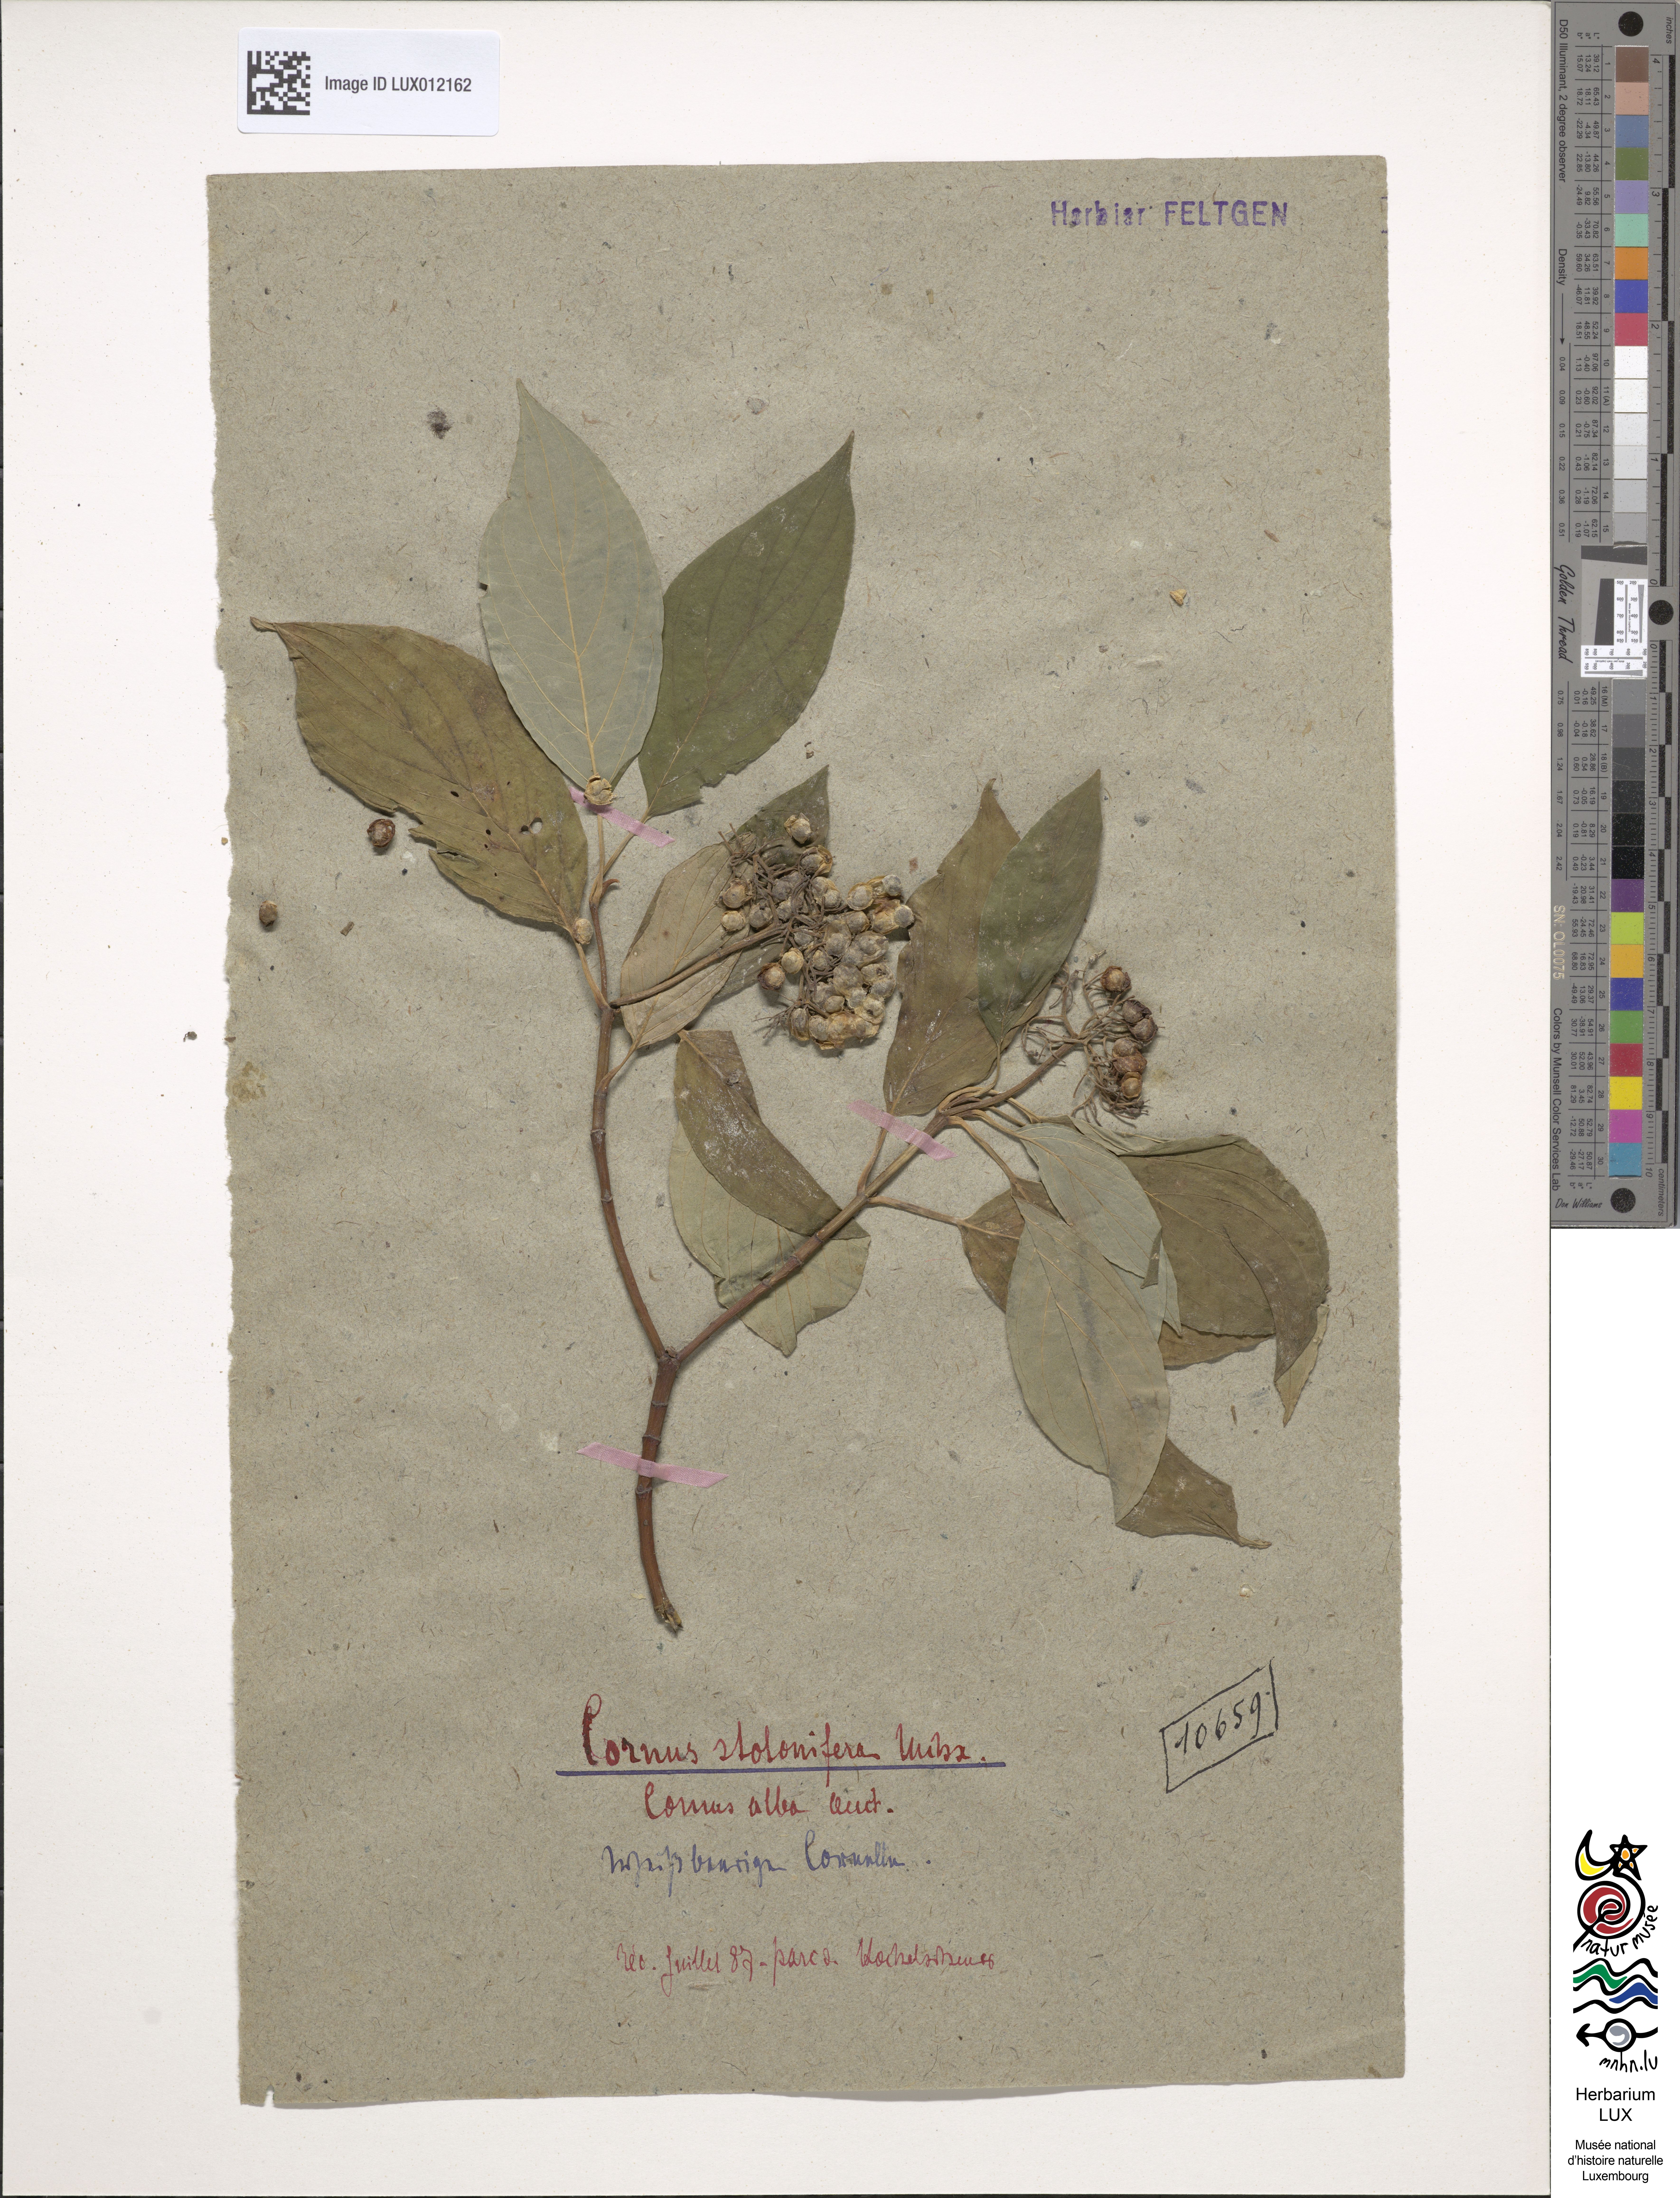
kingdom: Plantae
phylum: Tracheophyta
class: Magnoliopsida
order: Cornales
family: Cornaceae
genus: Cornus
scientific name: Cornus sericea
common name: Red-osier dogwood
